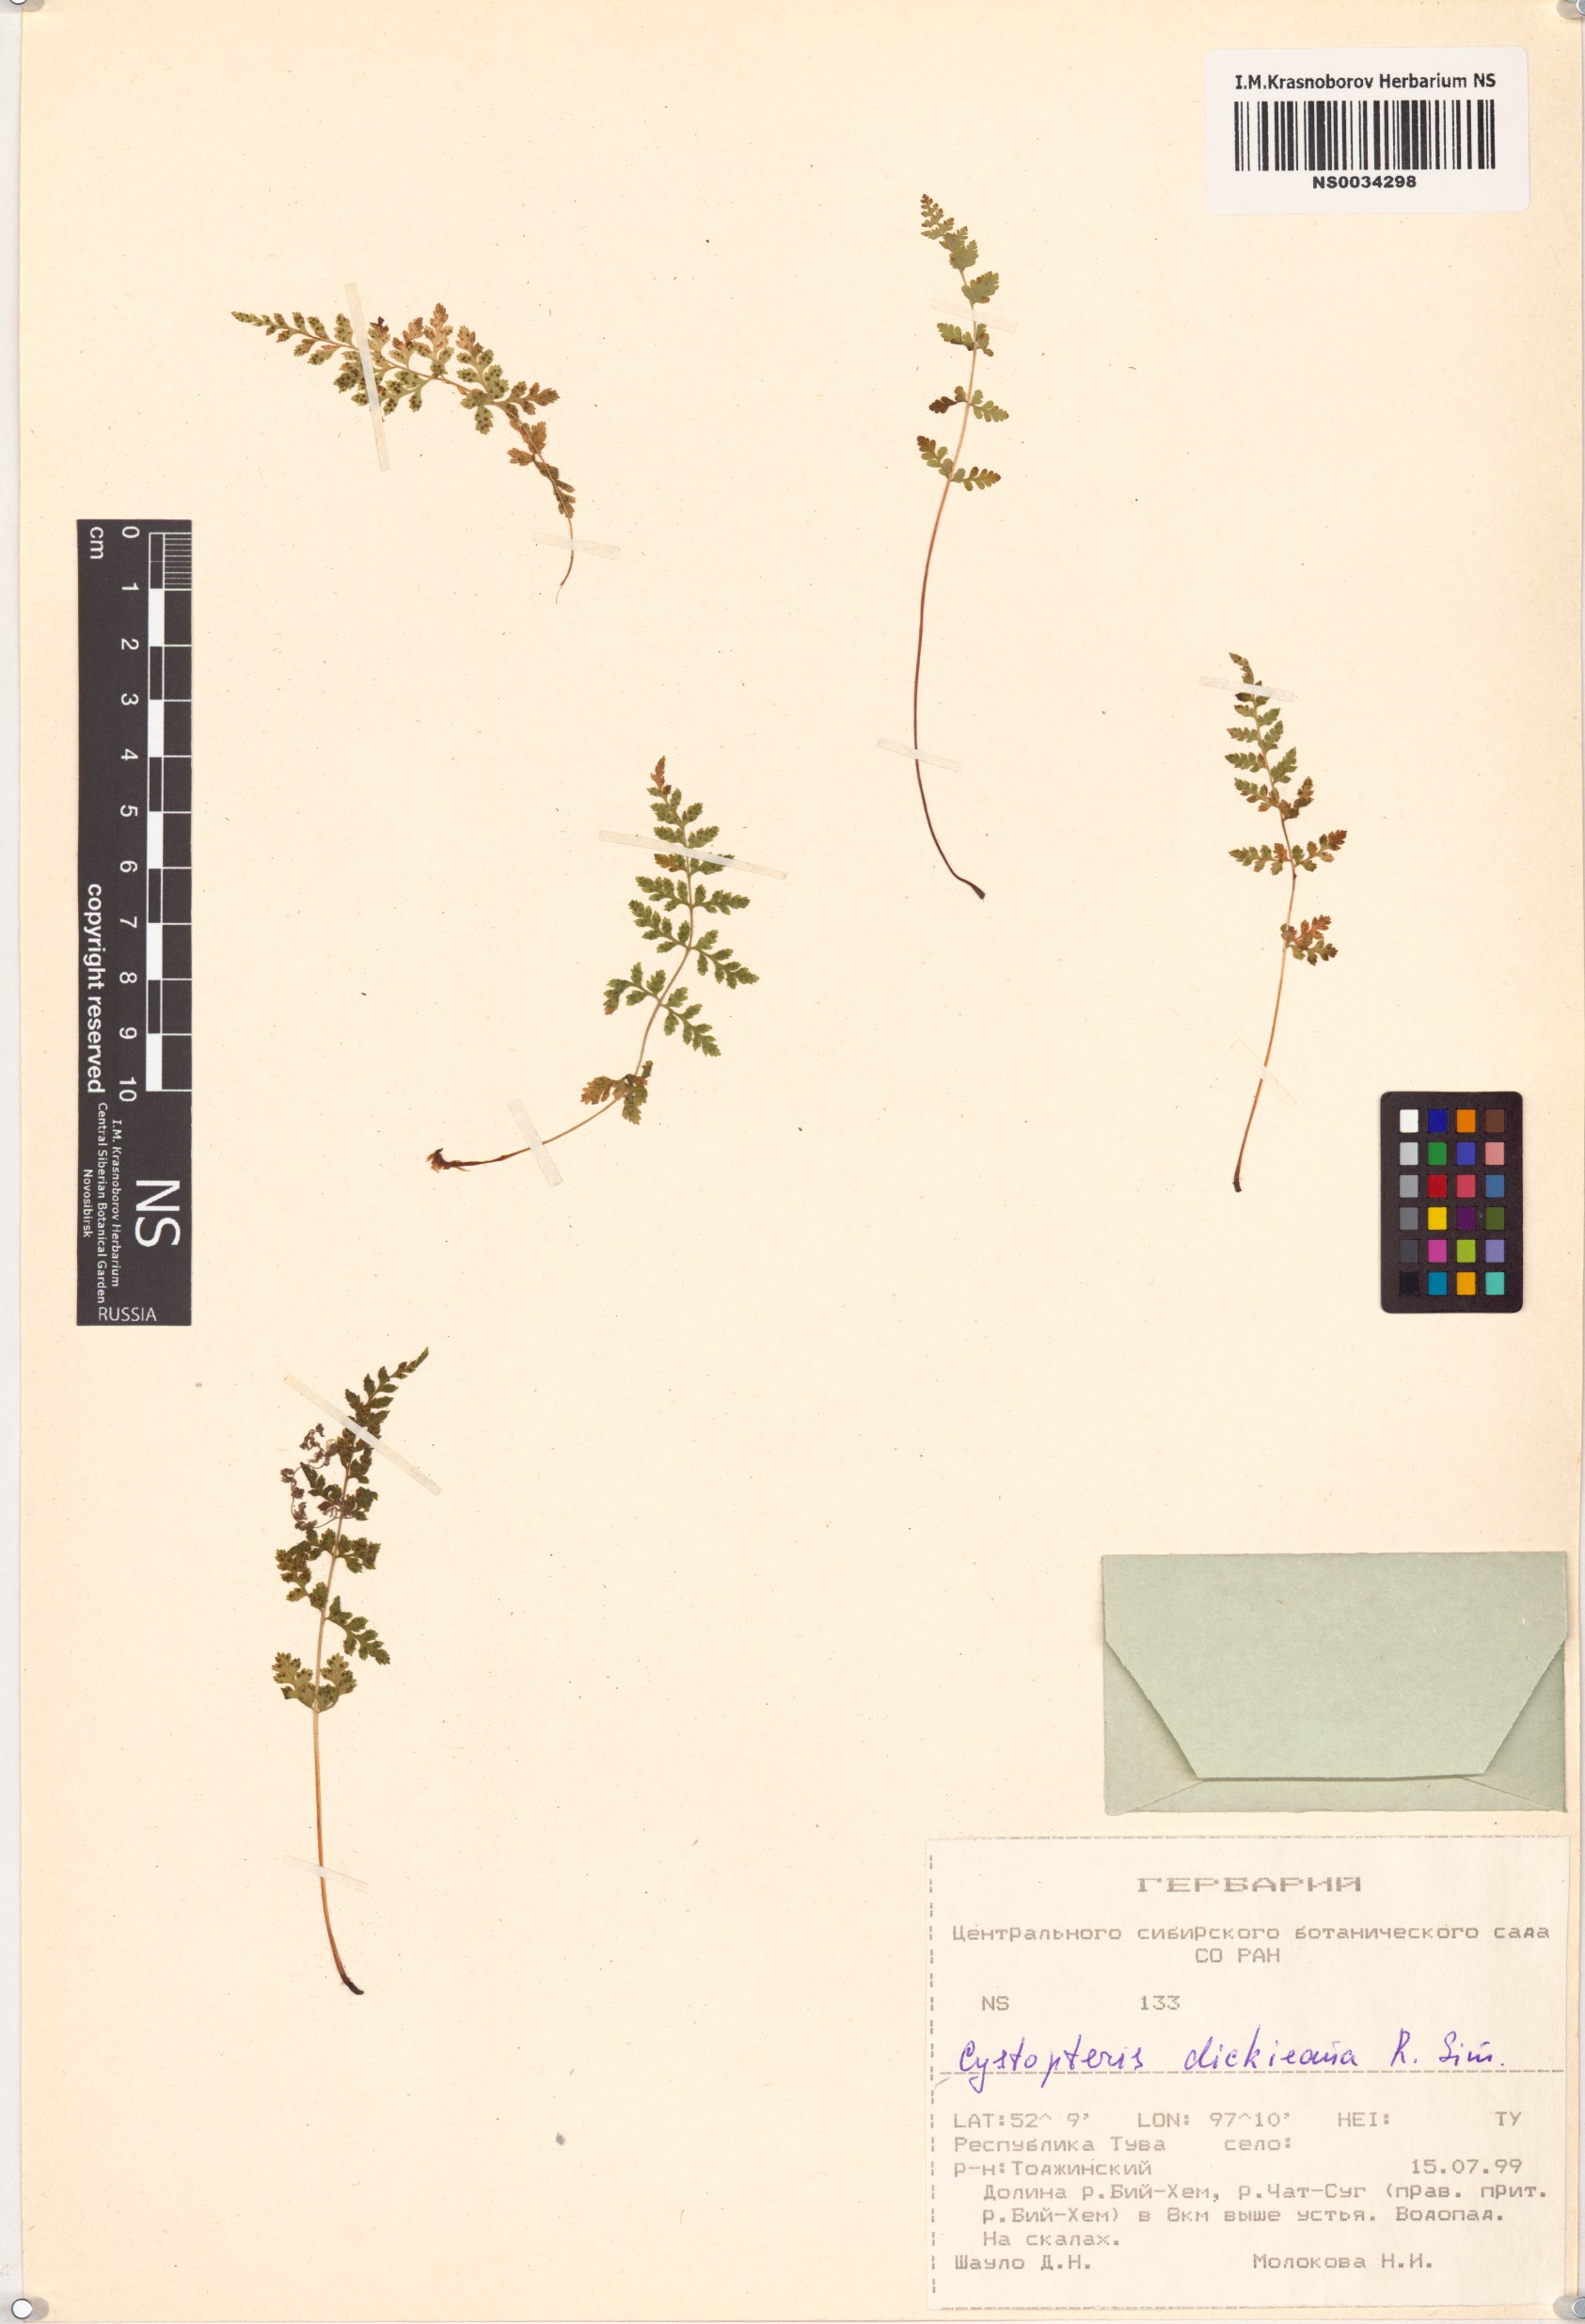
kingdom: Plantae
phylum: Tracheophyta
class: Polypodiopsida
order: Polypodiales
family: Cystopteridaceae
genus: Cystopteris
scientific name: Cystopteris dickieana
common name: Dickie's bladder-fern
